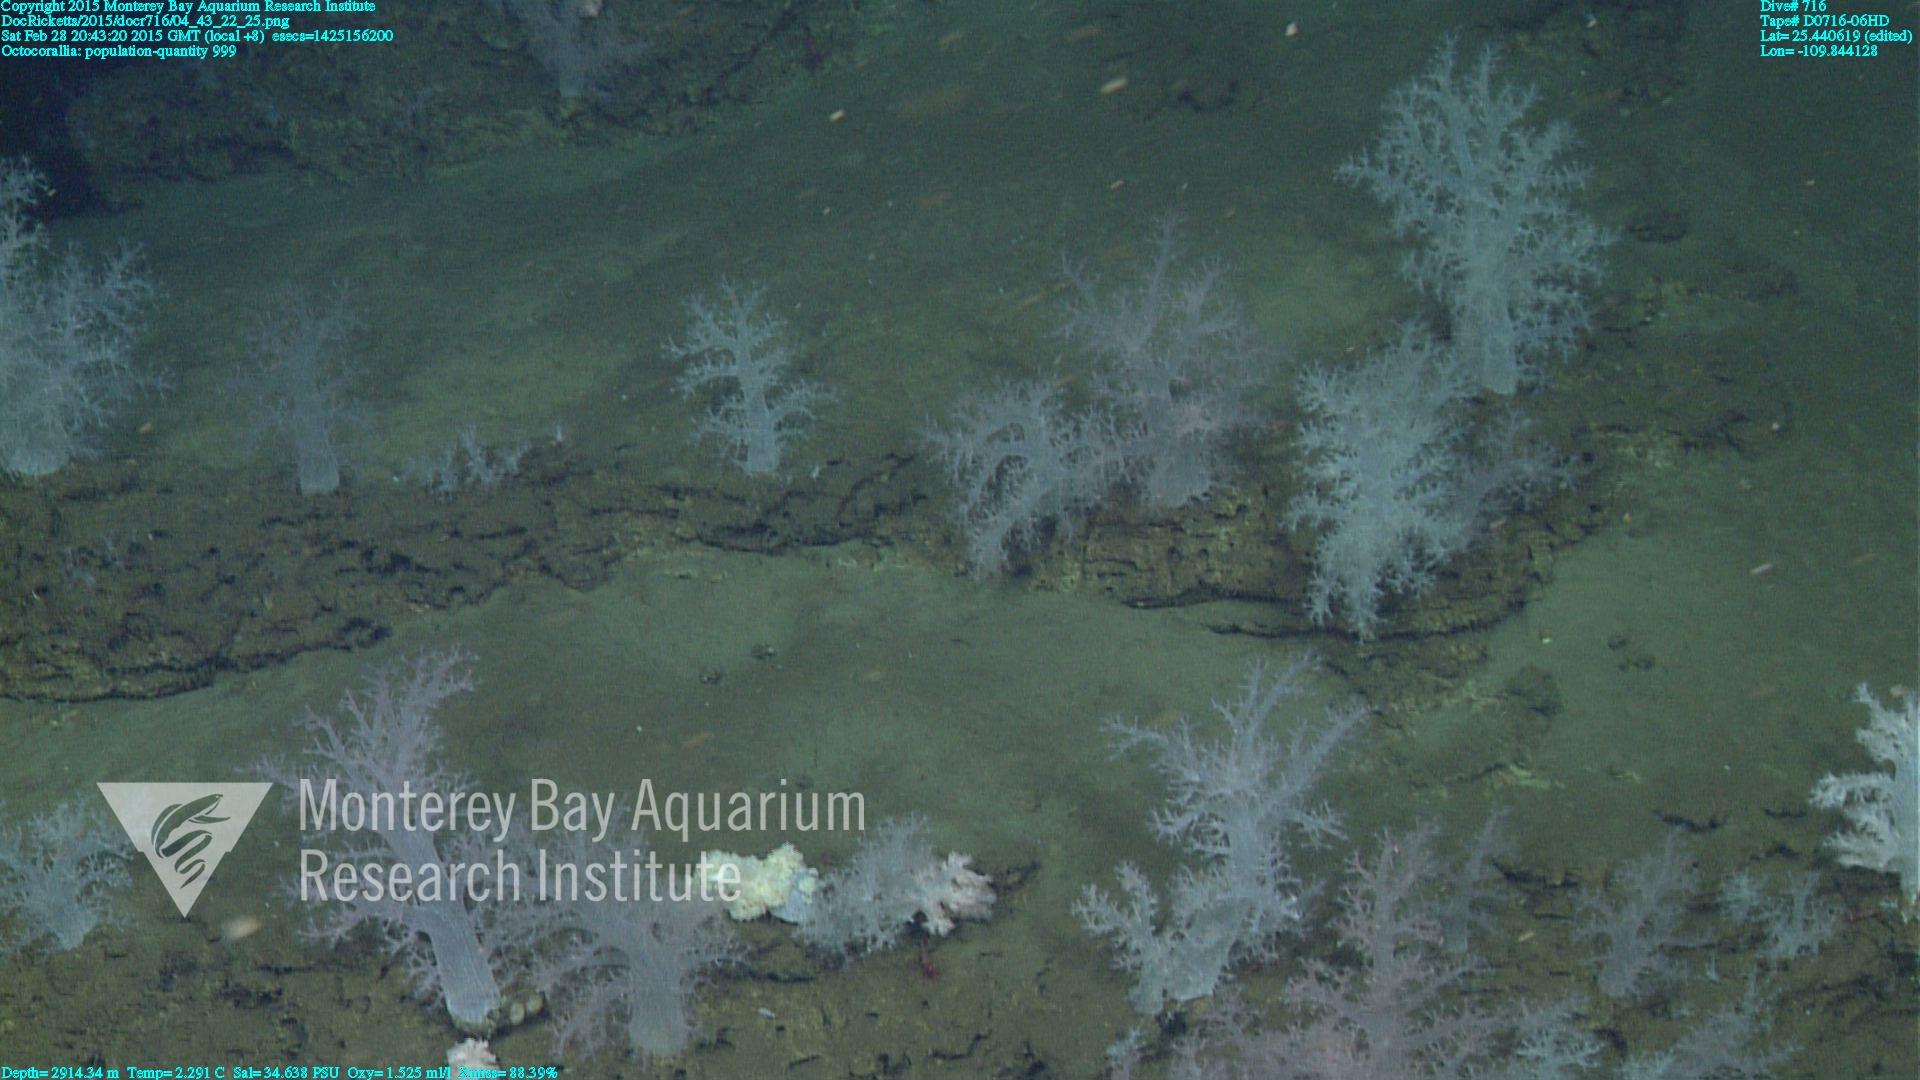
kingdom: Animalia
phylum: Cnidaria
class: Anthozoa
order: Malacalcyonacea
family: Alcyoniidae
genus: Gersemia
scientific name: Gersemia juliepackardae
